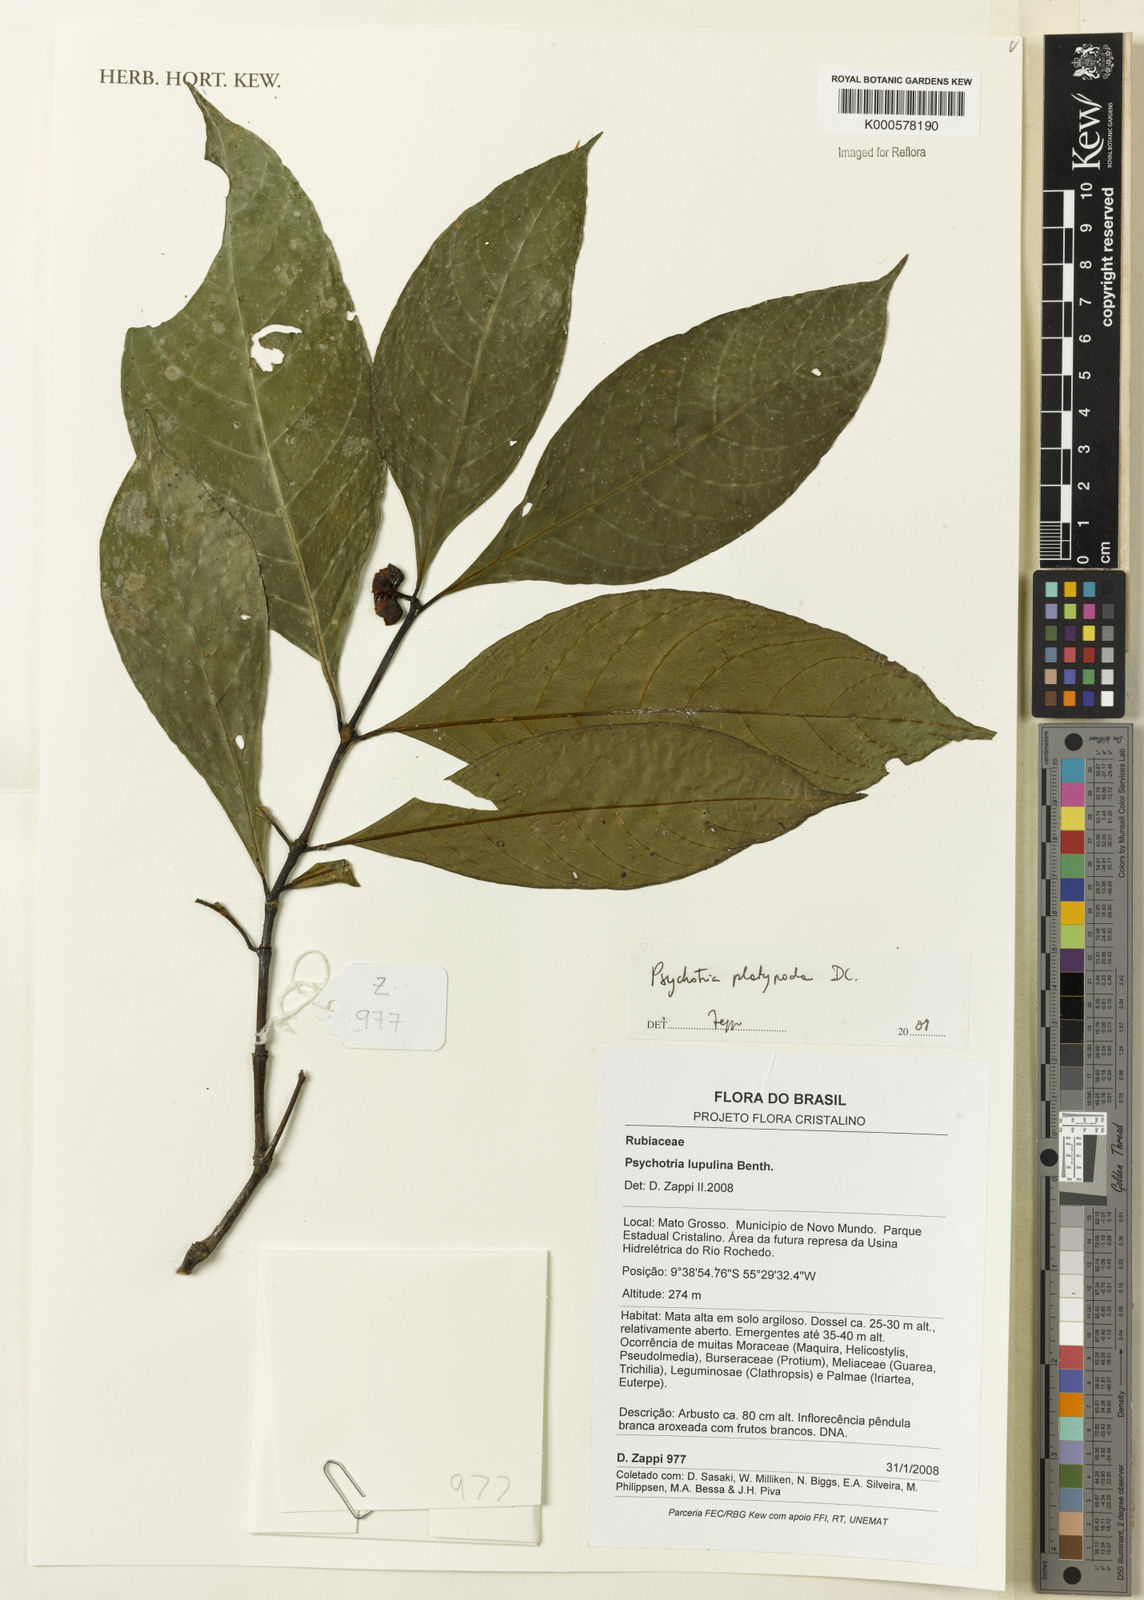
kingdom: Plantae
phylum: Tracheophyta
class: Magnoliopsida
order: Gentianales
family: Rubiaceae
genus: Palicourea
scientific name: Palicourea dichotoma
